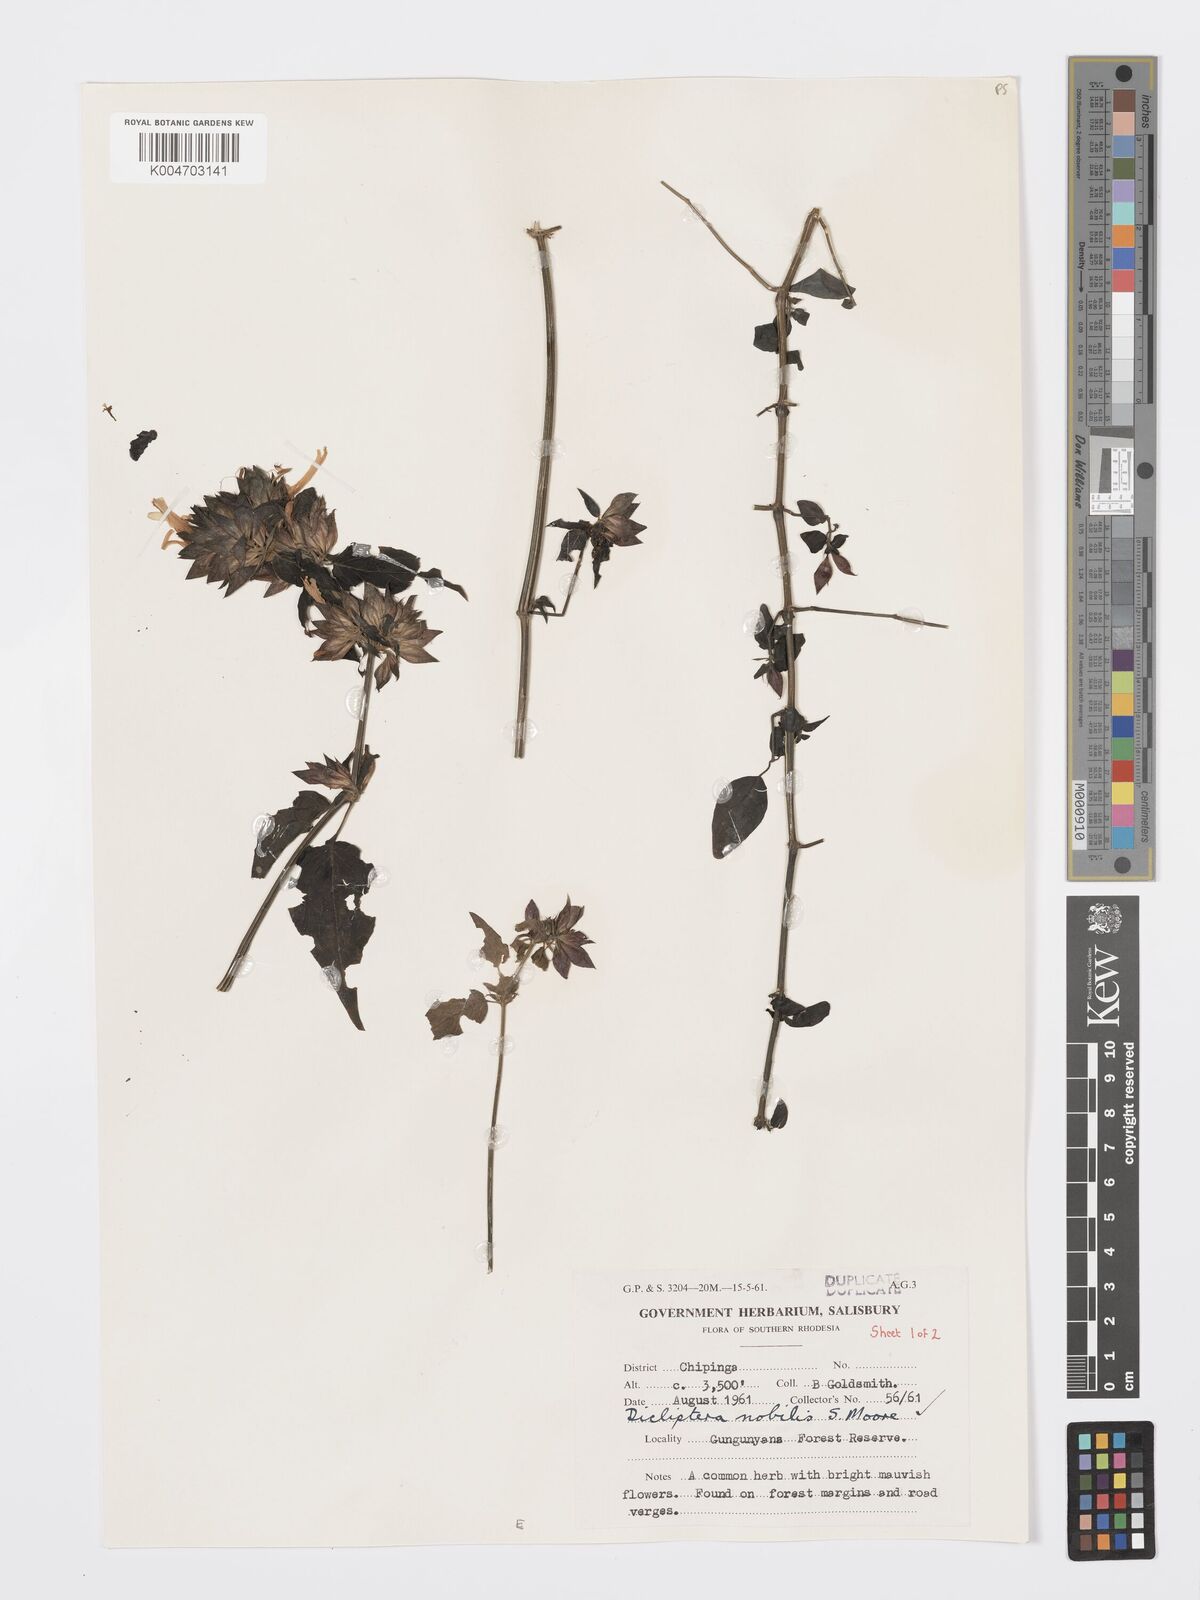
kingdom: Plantae
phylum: Tracheophyta
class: Magnoliopsida
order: Lamiales
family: Acanthaceae
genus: Dicliptera
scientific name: Dicliptera clinopodia
